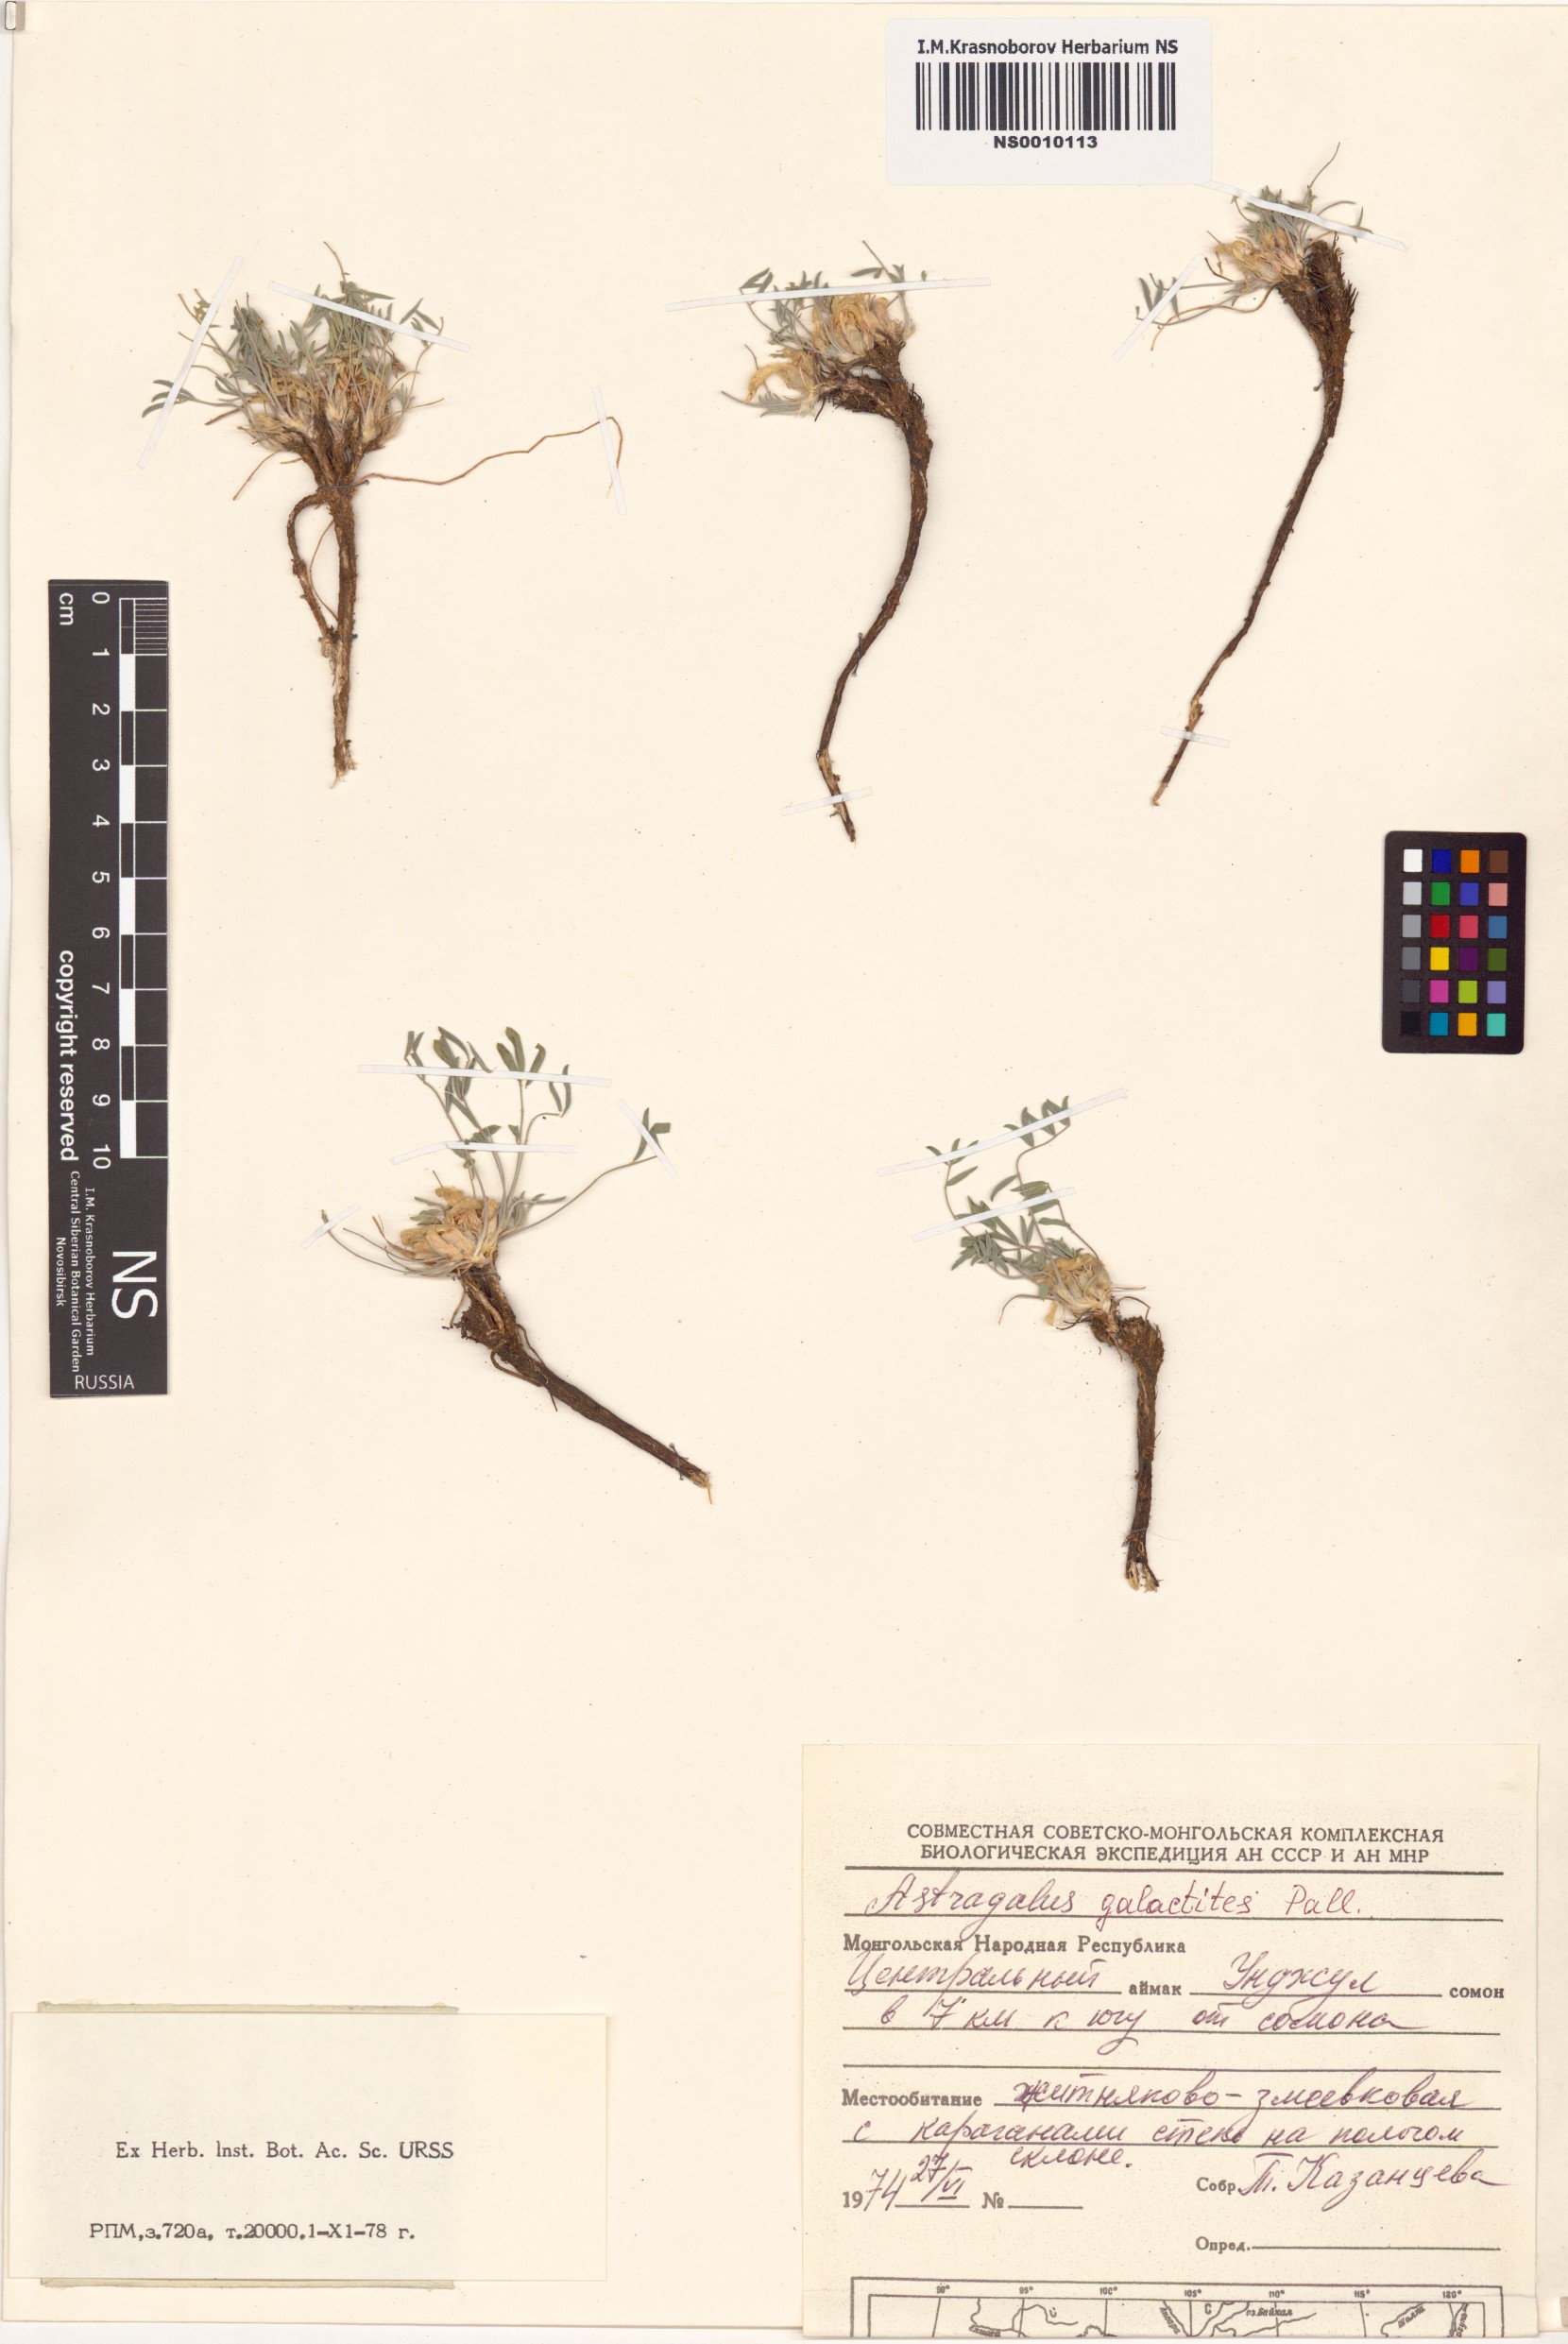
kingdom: Plantae
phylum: Tracheophyta
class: Magnoliopsida
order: Fabales
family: Fabaceae
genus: Astragalus
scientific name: Astragalus galactites
